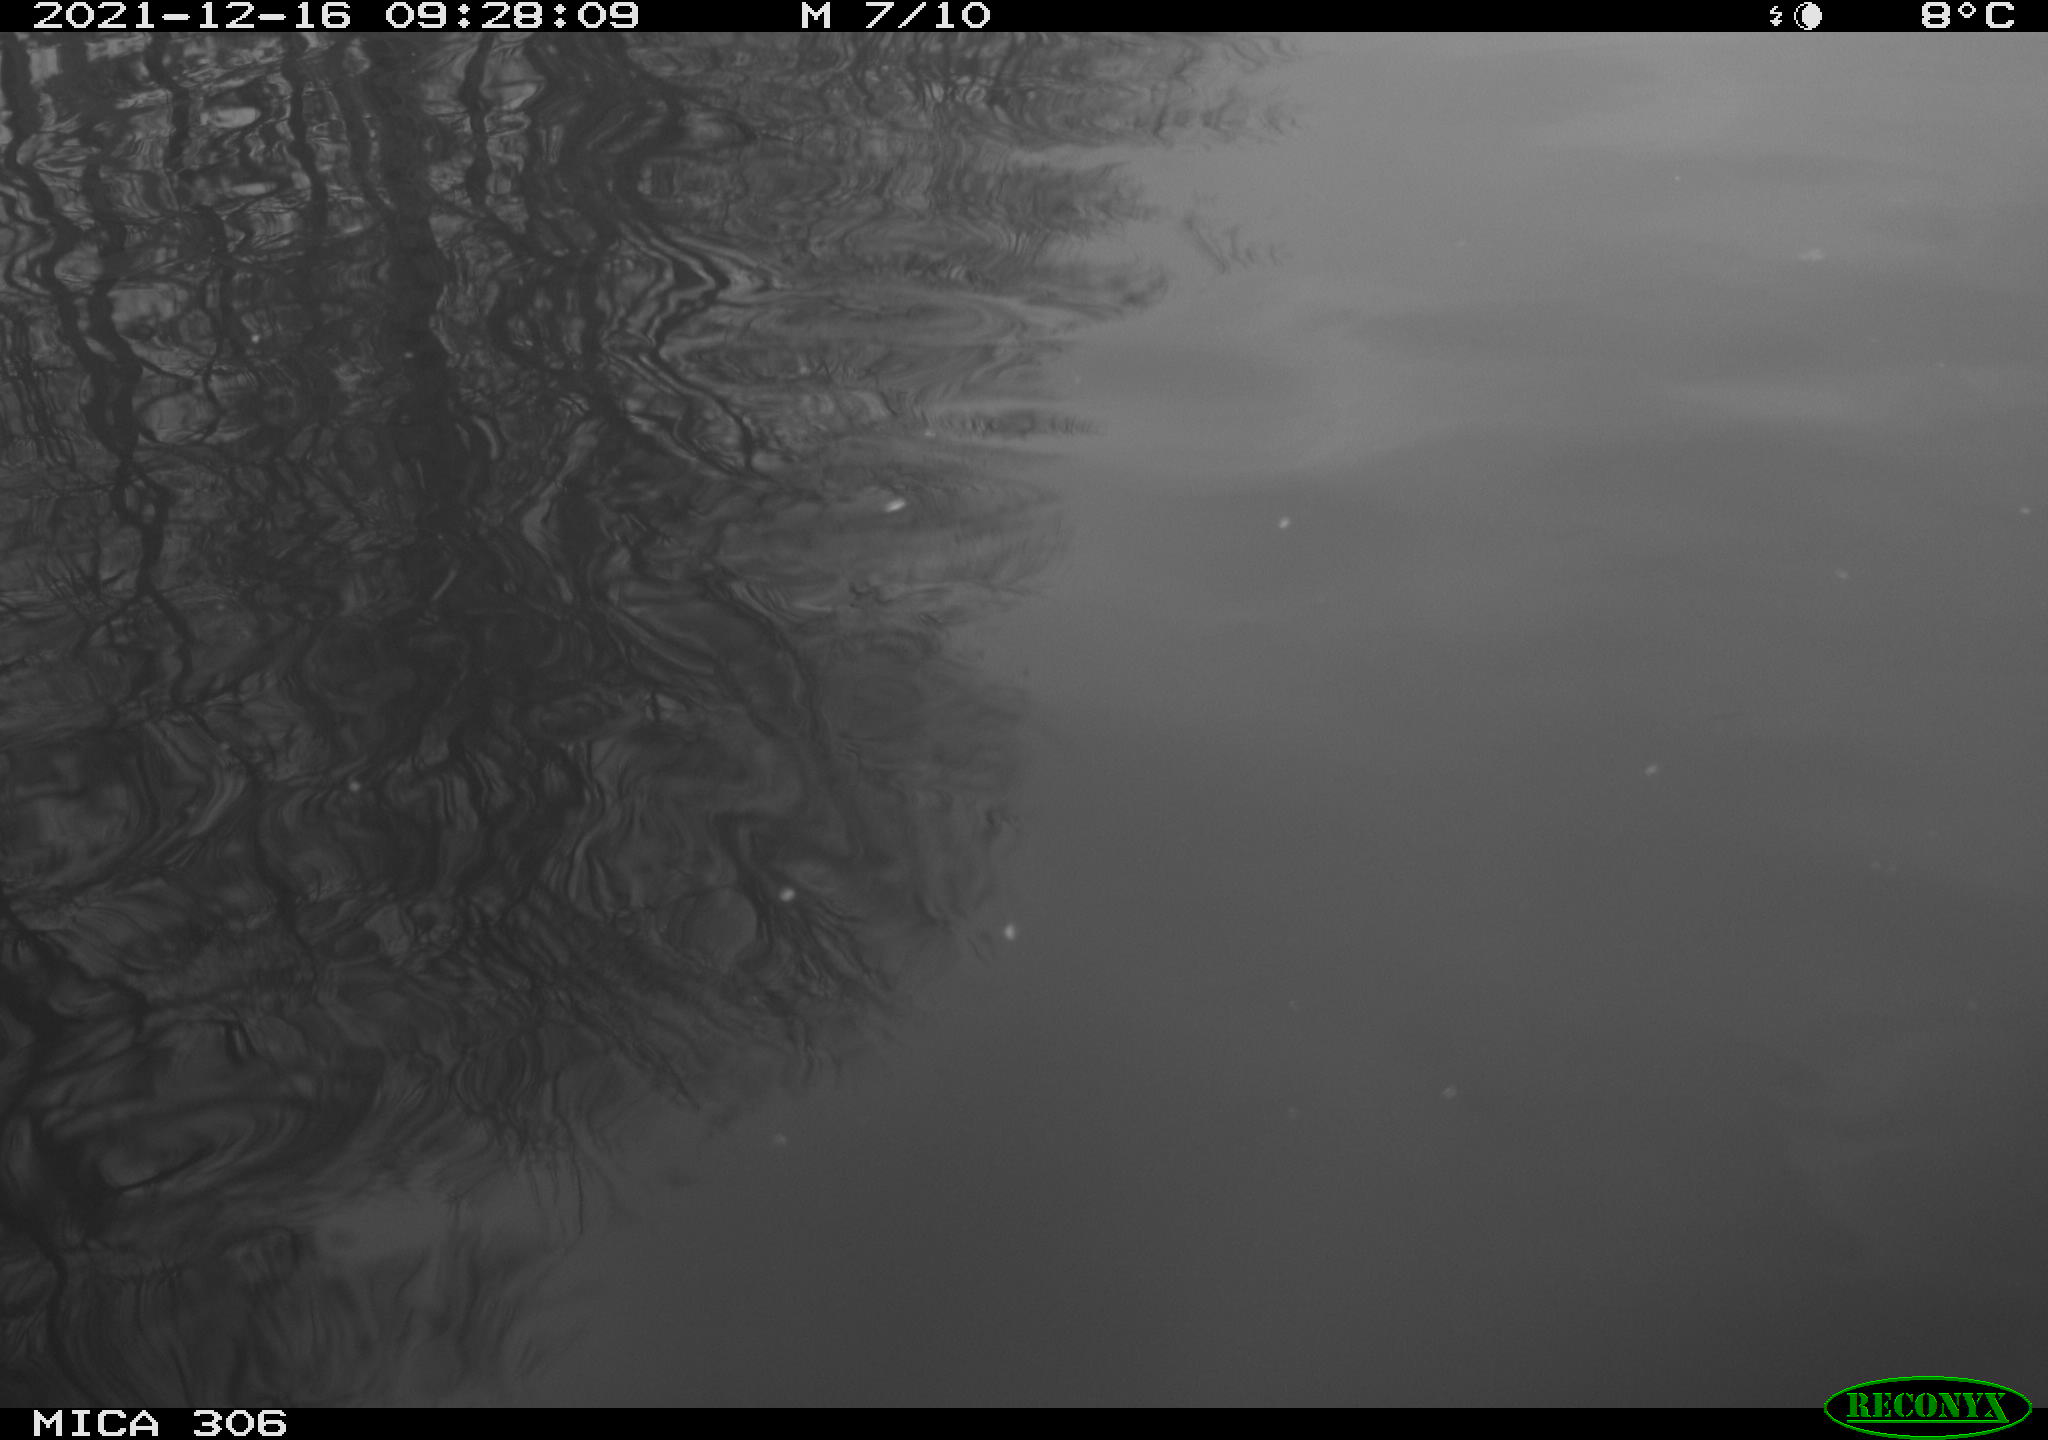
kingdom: Animalia
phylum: Chordata
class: Aves
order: Anseriformes
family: Anatidae
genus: Anas
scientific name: Anas
